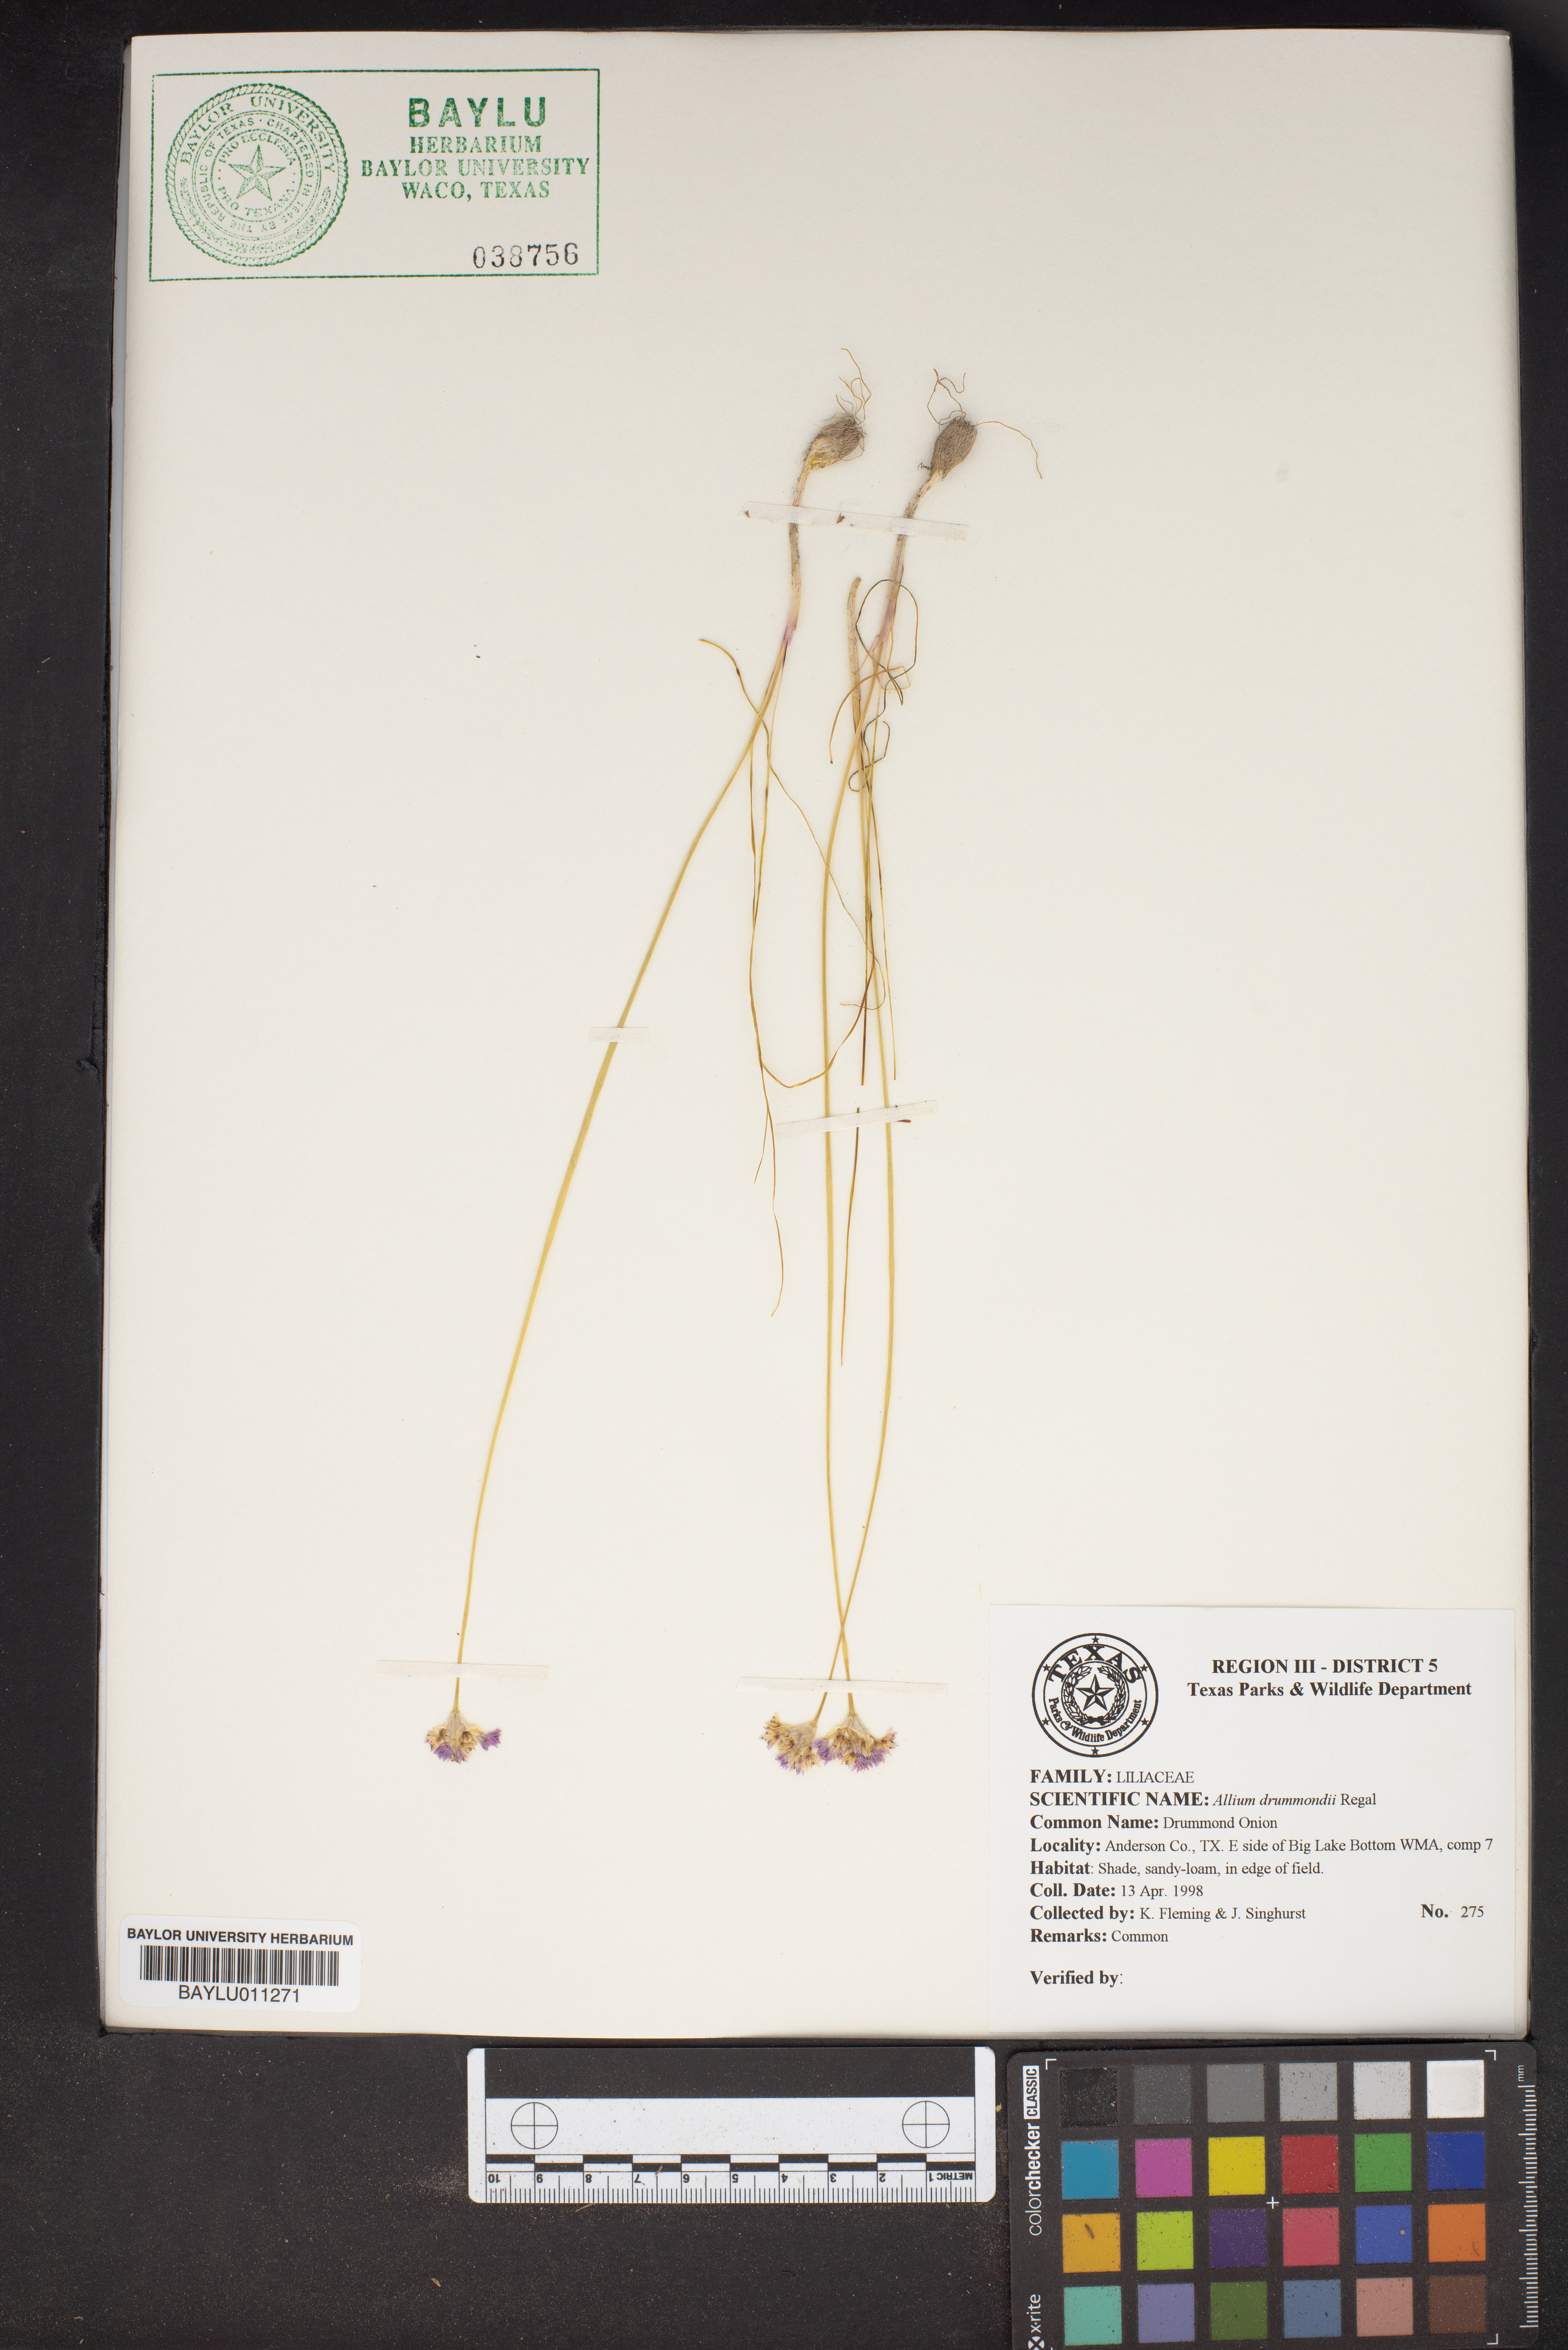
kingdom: Plantae
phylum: Tracheophyta
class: Liliopsida
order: Asparagales
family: Amaryllidaceae
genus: Allium
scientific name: Allium drummondii
